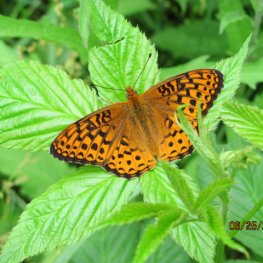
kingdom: Animalia
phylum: Arthropoda
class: Insecta
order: Lepidoptera
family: Nymphalidae
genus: Speyeria
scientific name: Speyeria atlantis
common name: Atlantis Fritillary
